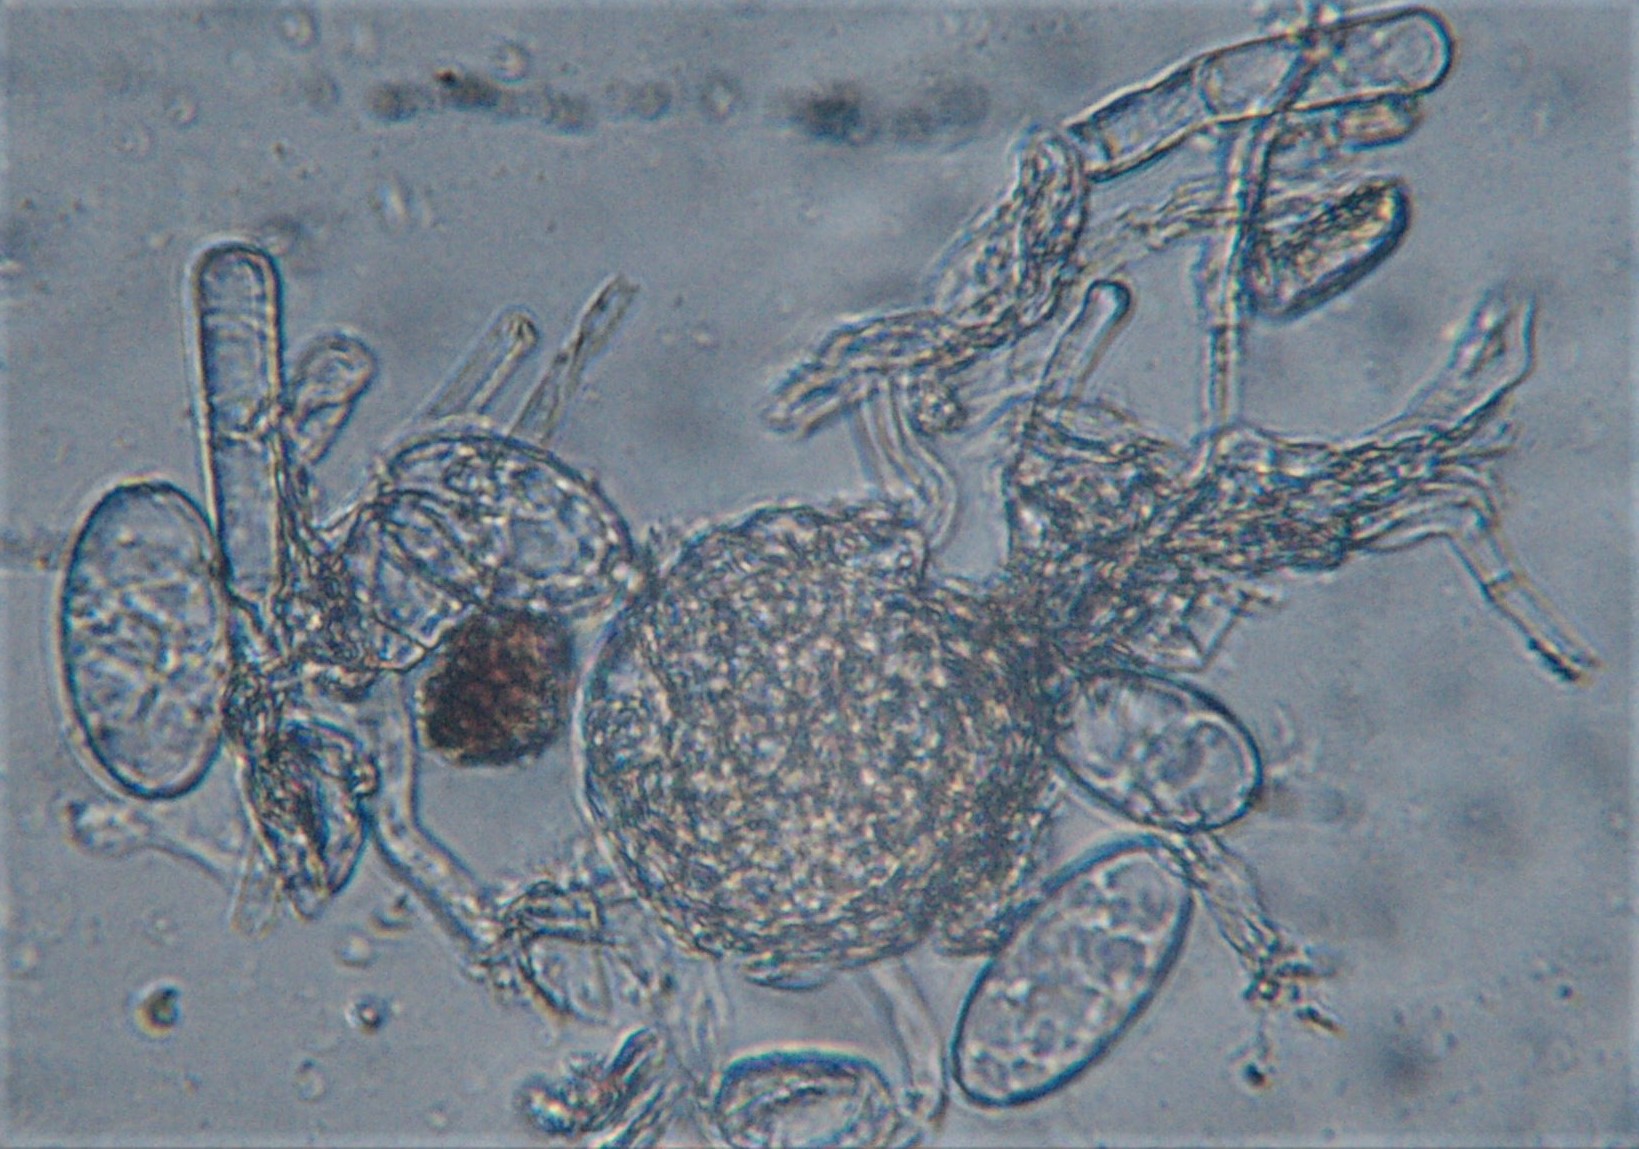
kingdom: Fungi
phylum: Ascomycota
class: Leotiomycetes
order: Helotiales
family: Erysiphaceae
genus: Erysiphe
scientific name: Erysiphe aquilegiae
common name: ranunkel-meldug
